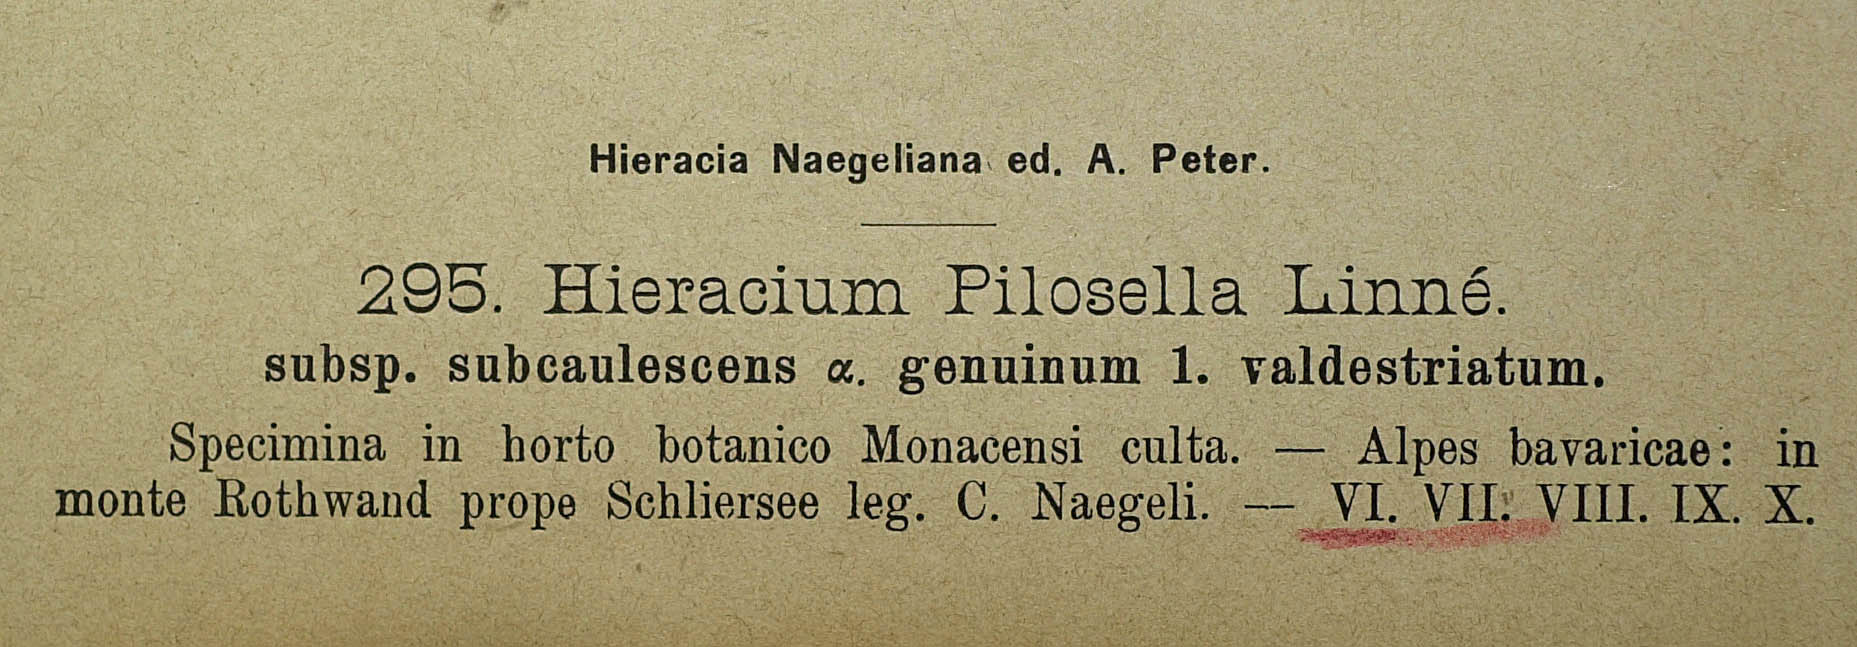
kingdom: Plantae
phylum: Tracheophyta
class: Magnoliopsida
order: Asterales
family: Asteraceae
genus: Pilosella
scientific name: Pilosella officinarum
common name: Mouse-ear hawkweed
